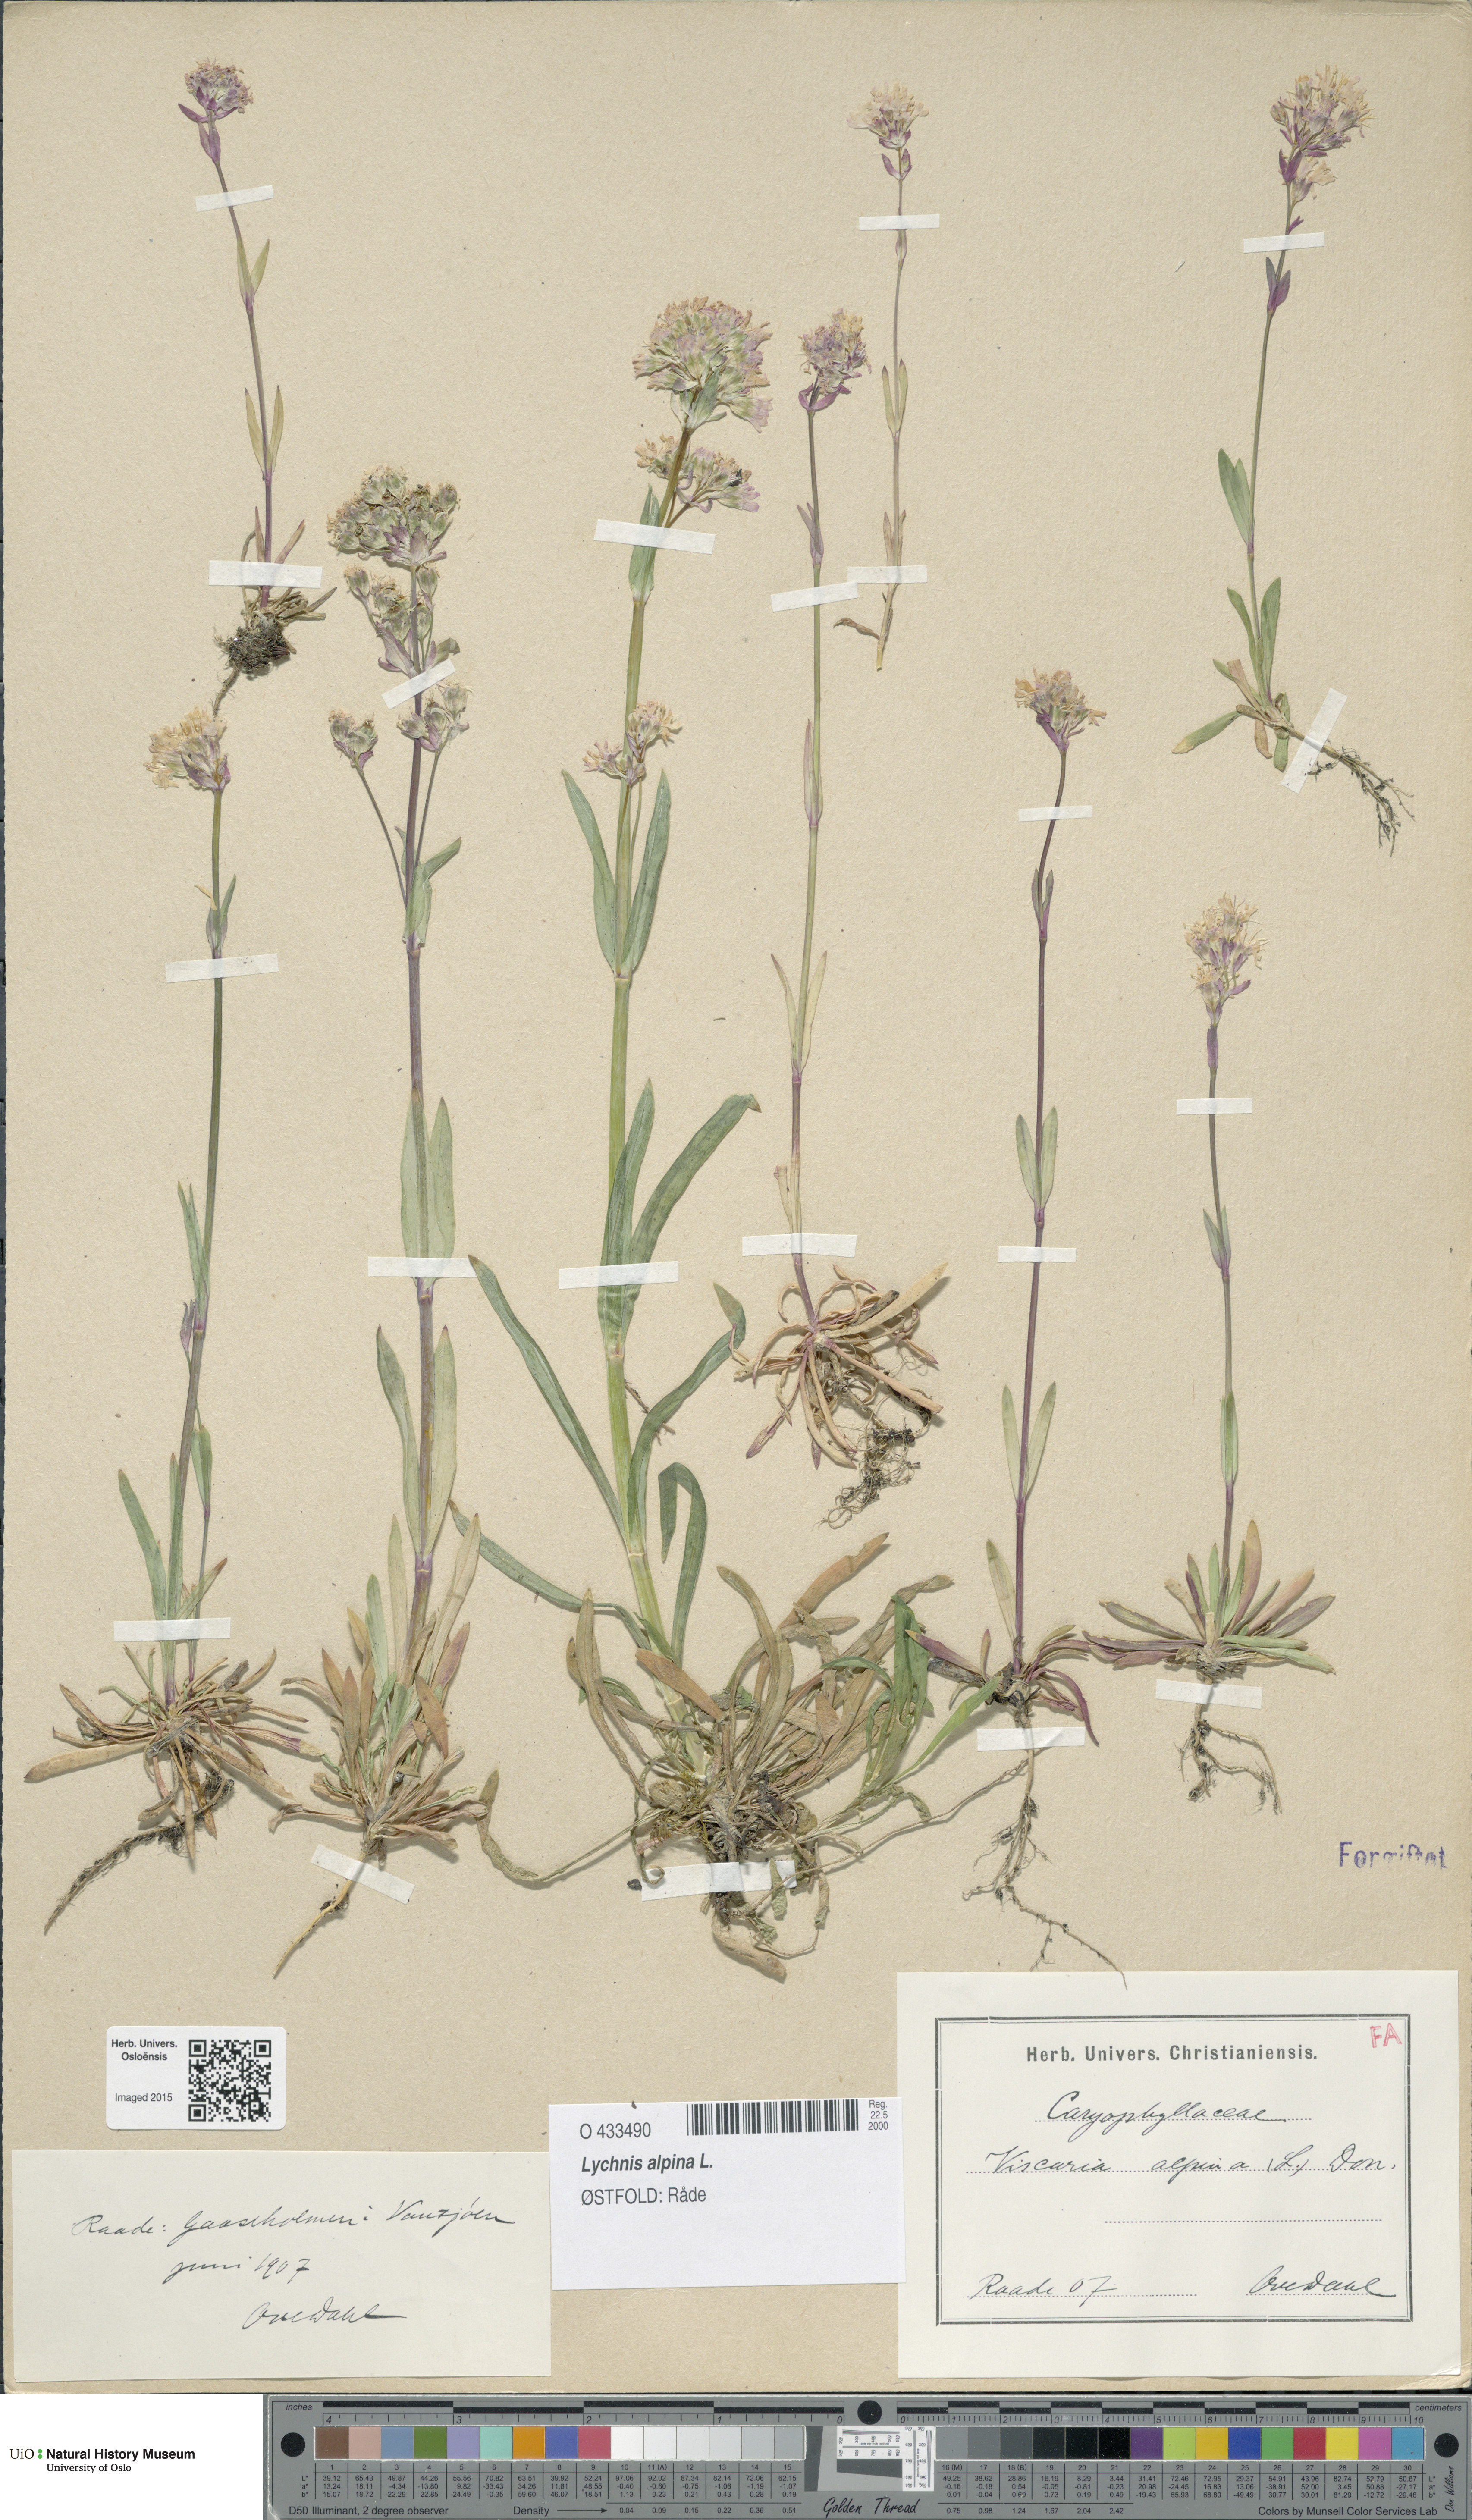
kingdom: Plantae
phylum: Tracheophyta
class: Magnoliopsida
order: Caryophyllales
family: Caryophyllaceae
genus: Viscaria
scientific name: Viscaria alpina
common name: Alpine campion
